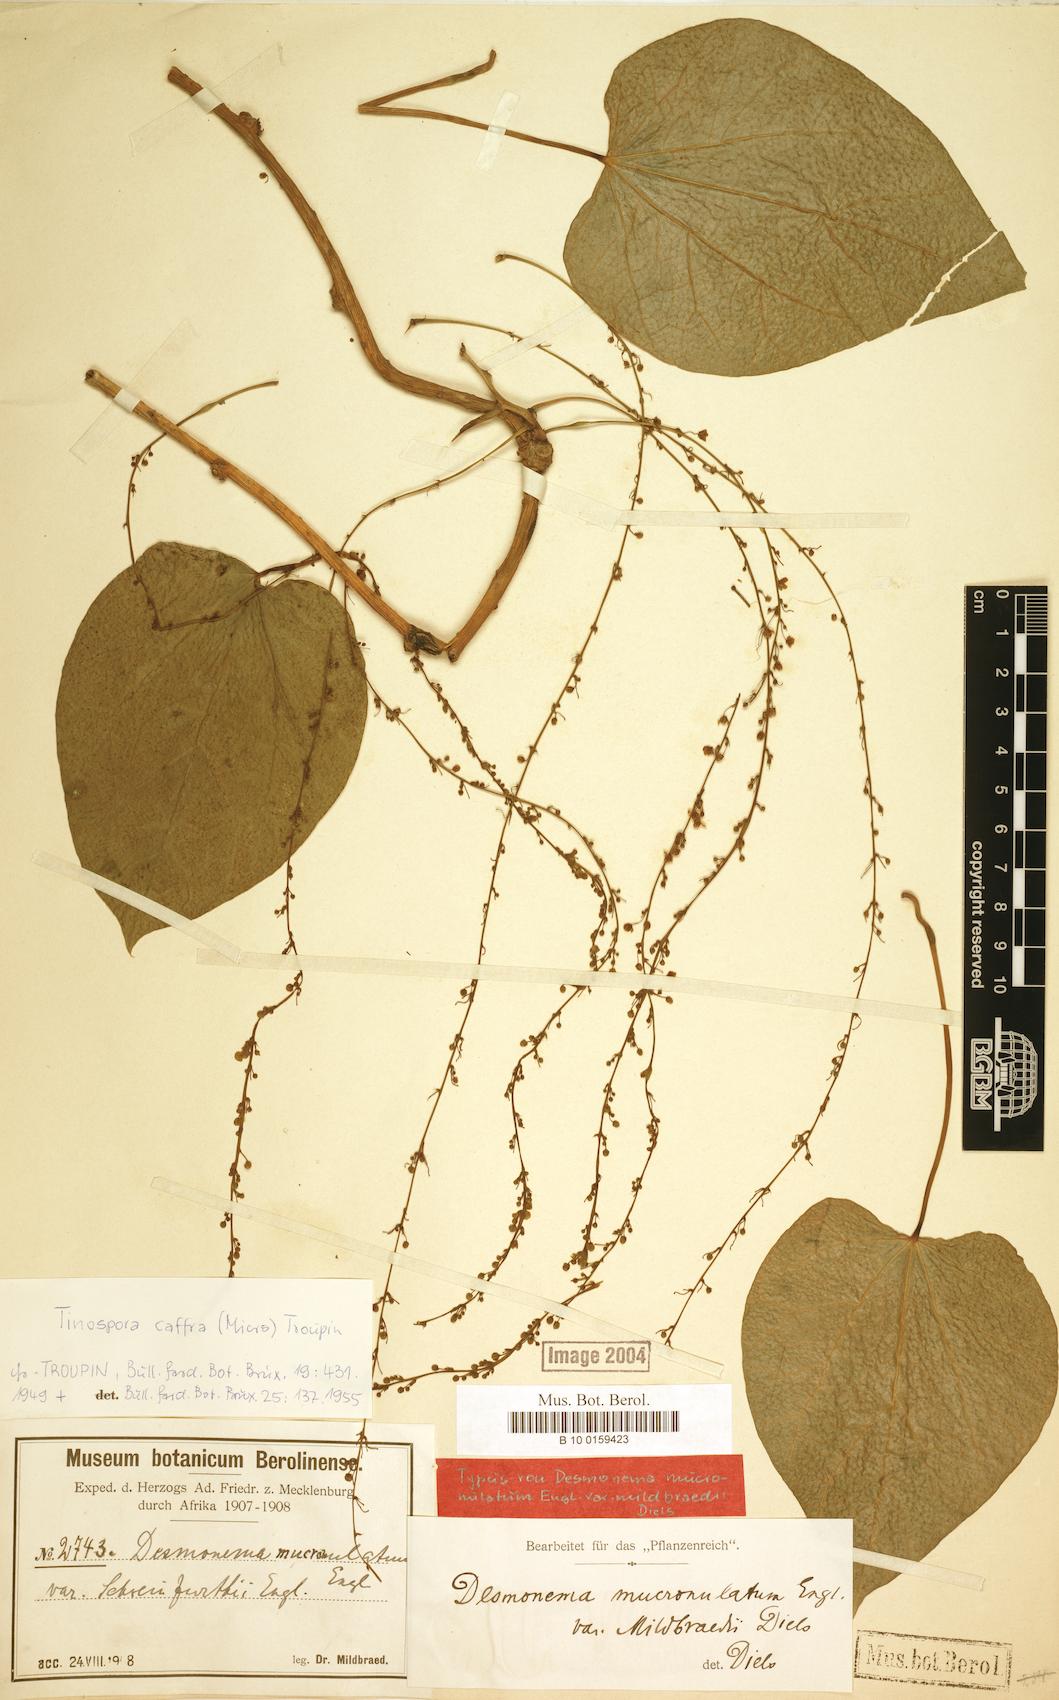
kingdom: Plantae
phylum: Tracheophyta
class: Magnoliopsida
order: Ranunculales
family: Menispermaceae
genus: Tinospora
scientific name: Tinospora caffra
